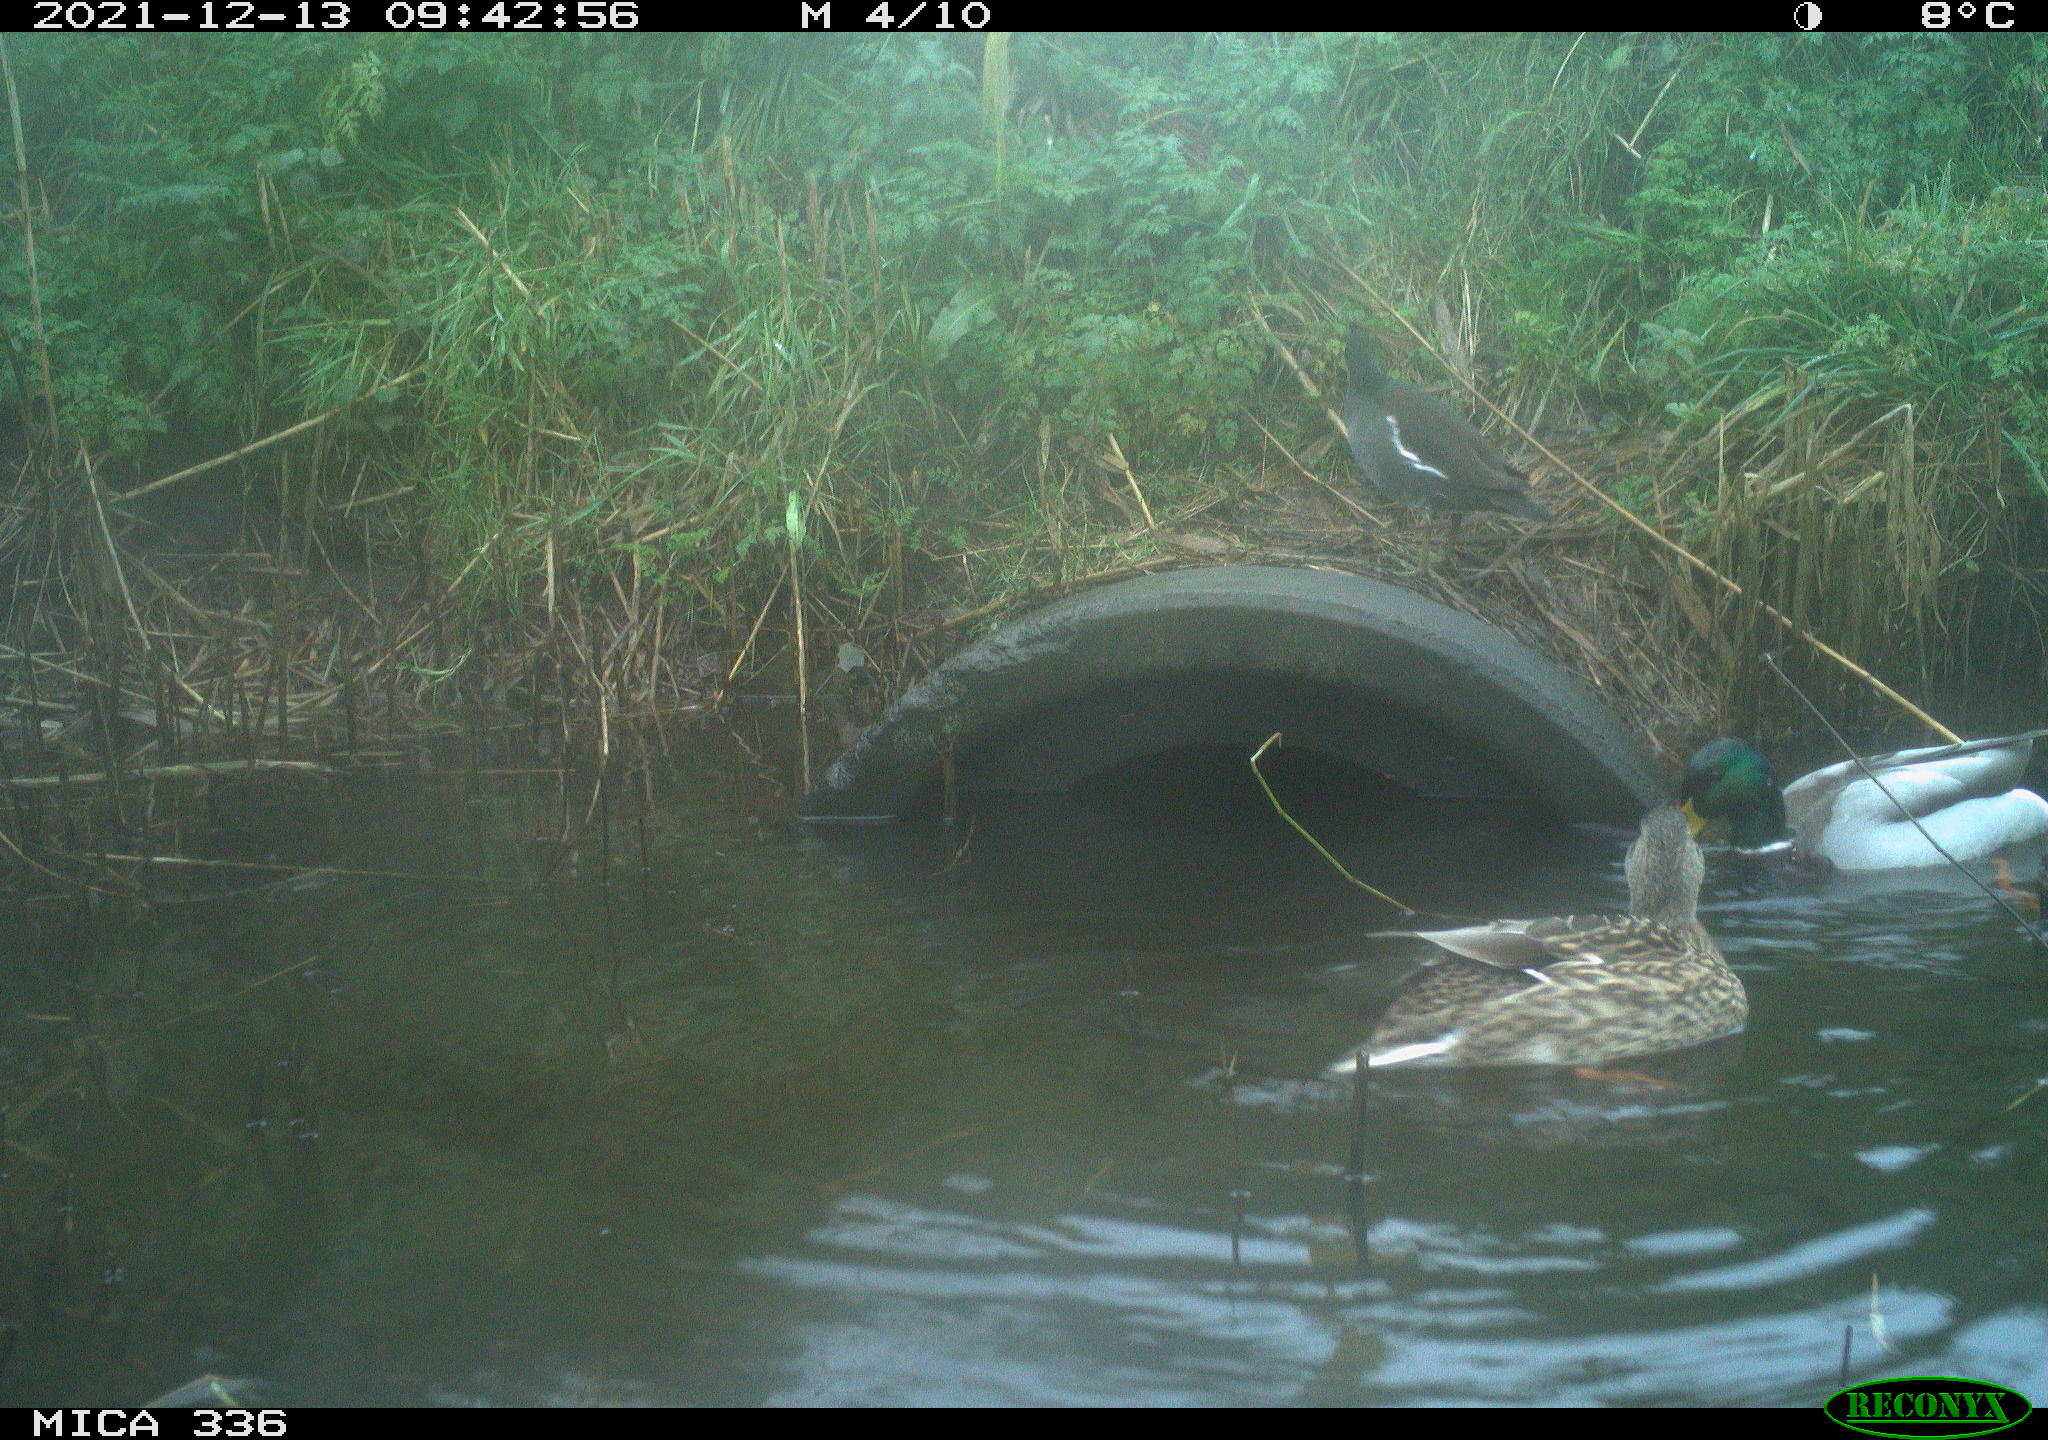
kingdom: Animalia
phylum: Chordata
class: Aves
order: Anseriformes
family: Anatidae
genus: Anas
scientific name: Anas platyrhynchos
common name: Mallard
